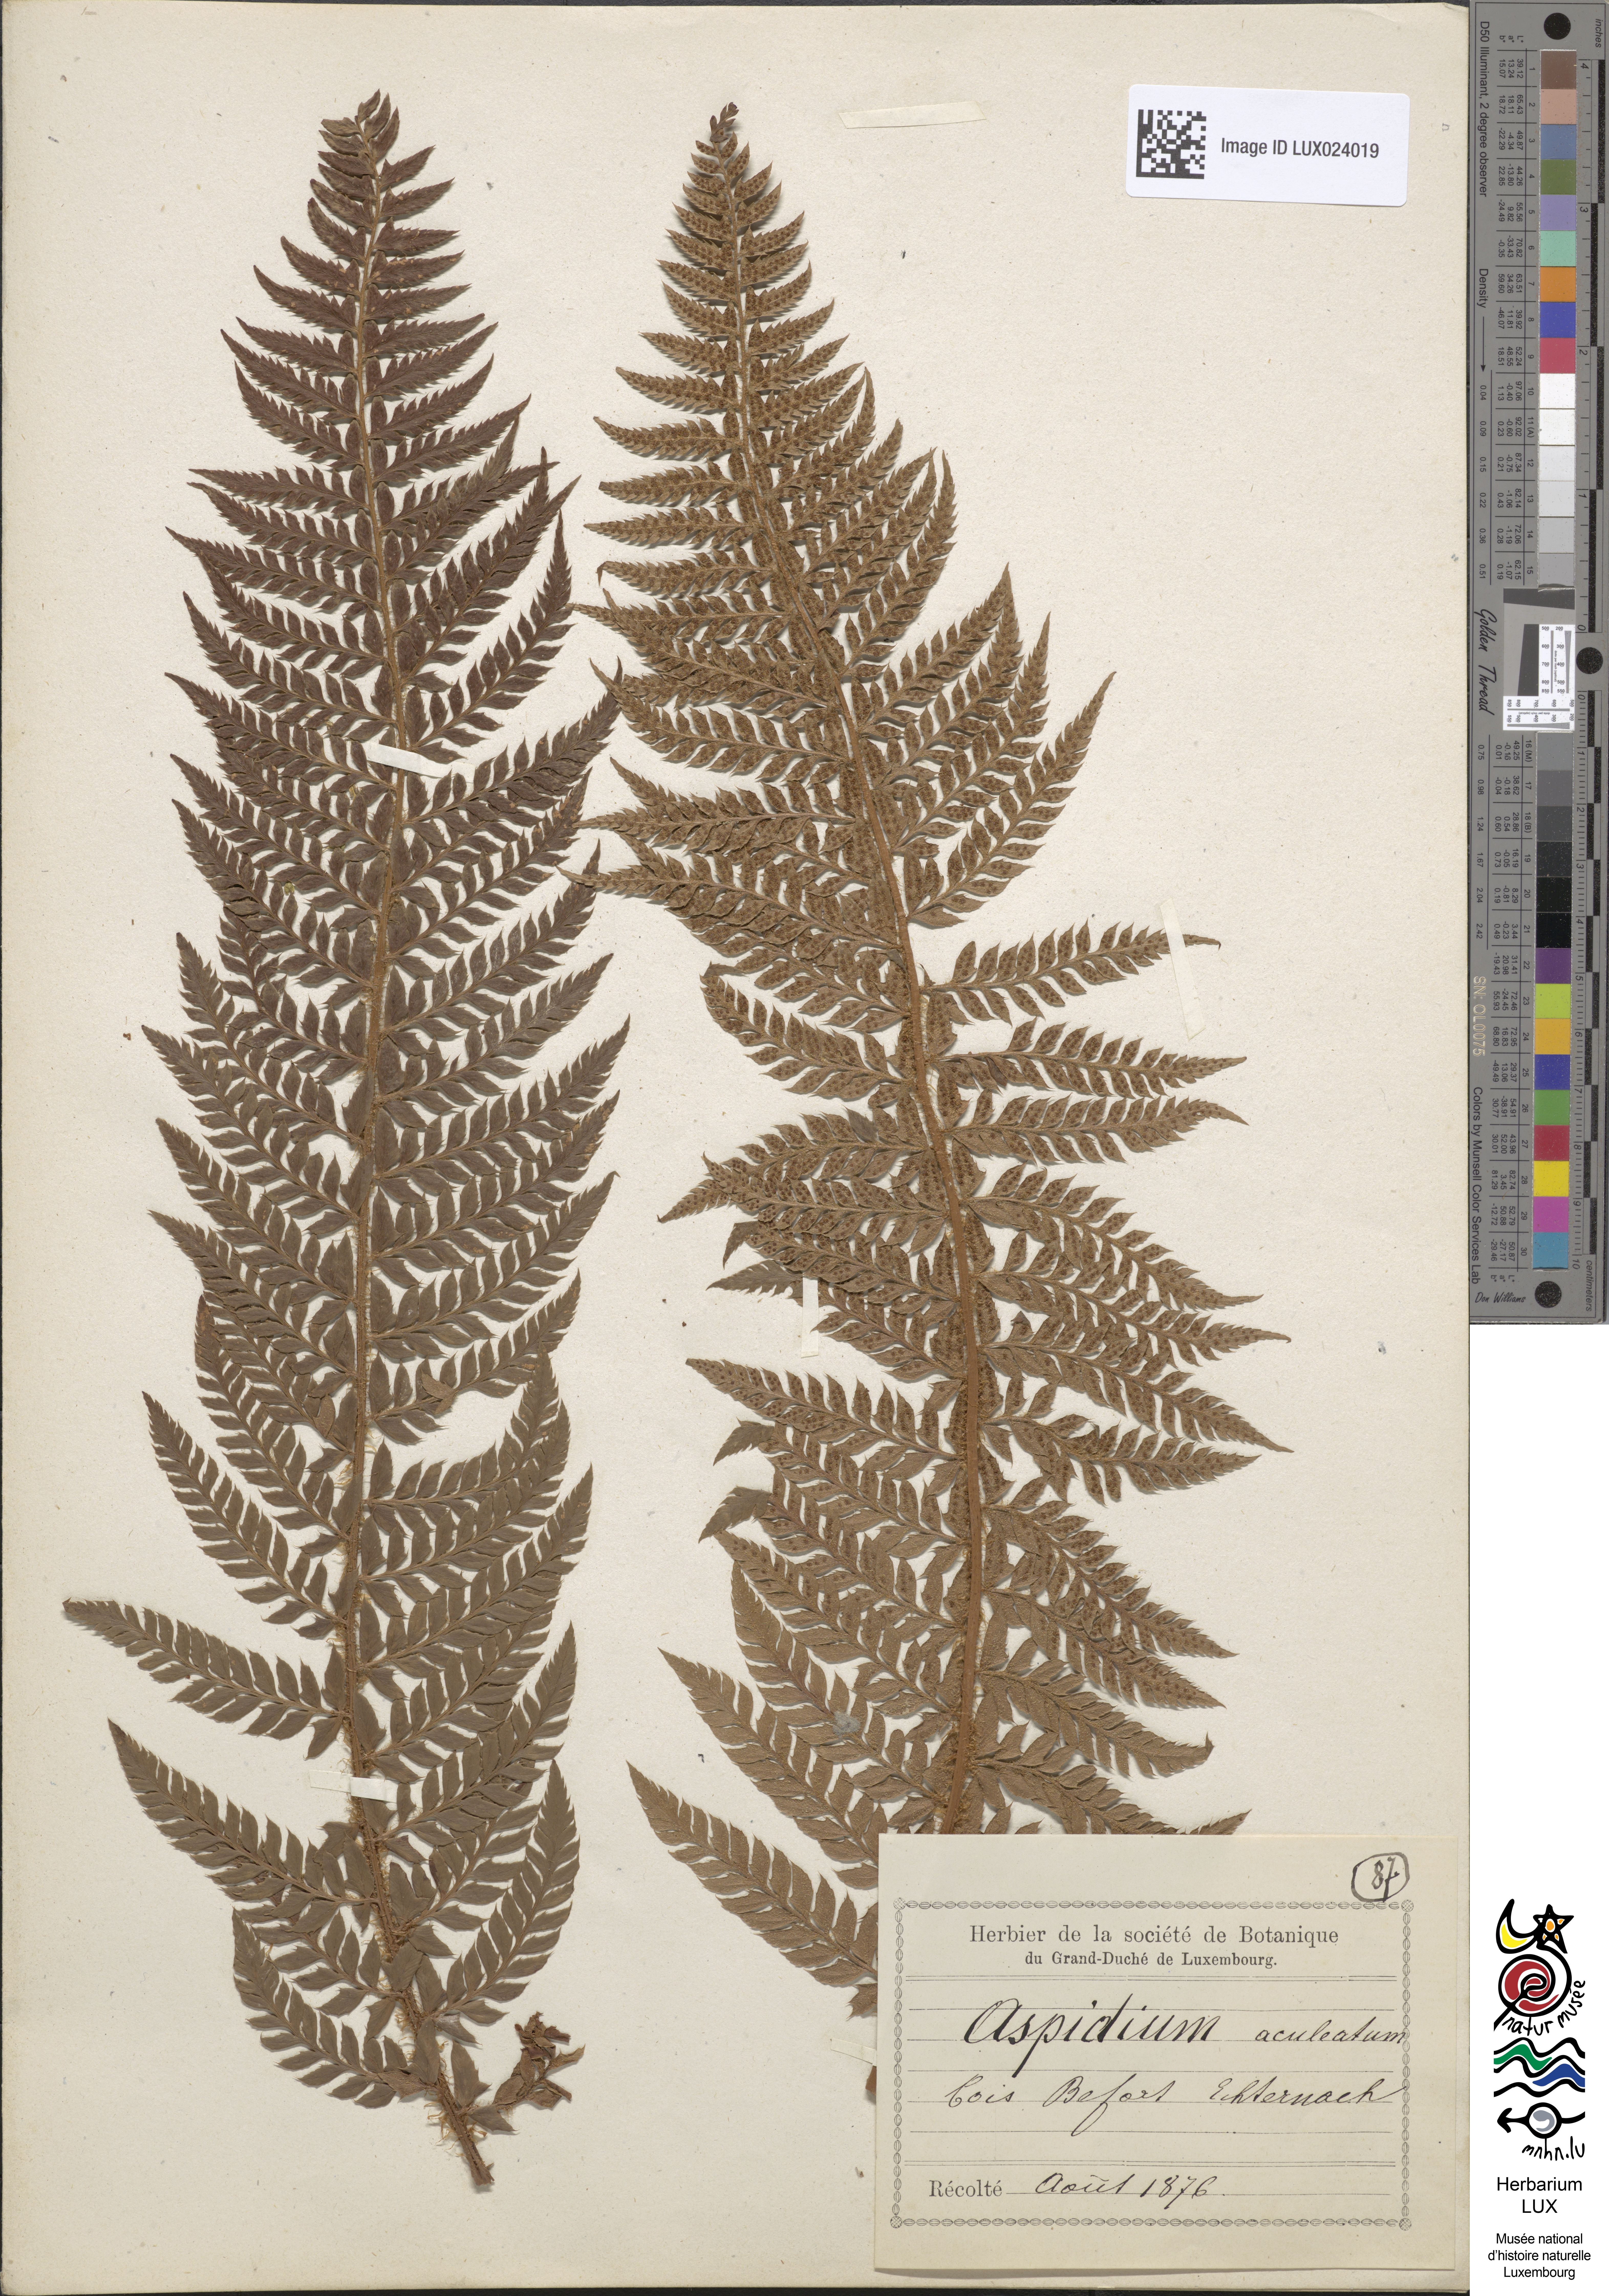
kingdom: Plantae
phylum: Tracheophyta
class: Polypodiopsida
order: Polypodiales
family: Dryopteridaceae
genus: Polystichum
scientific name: Polystichum aculeatum
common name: Hard shield-fern
